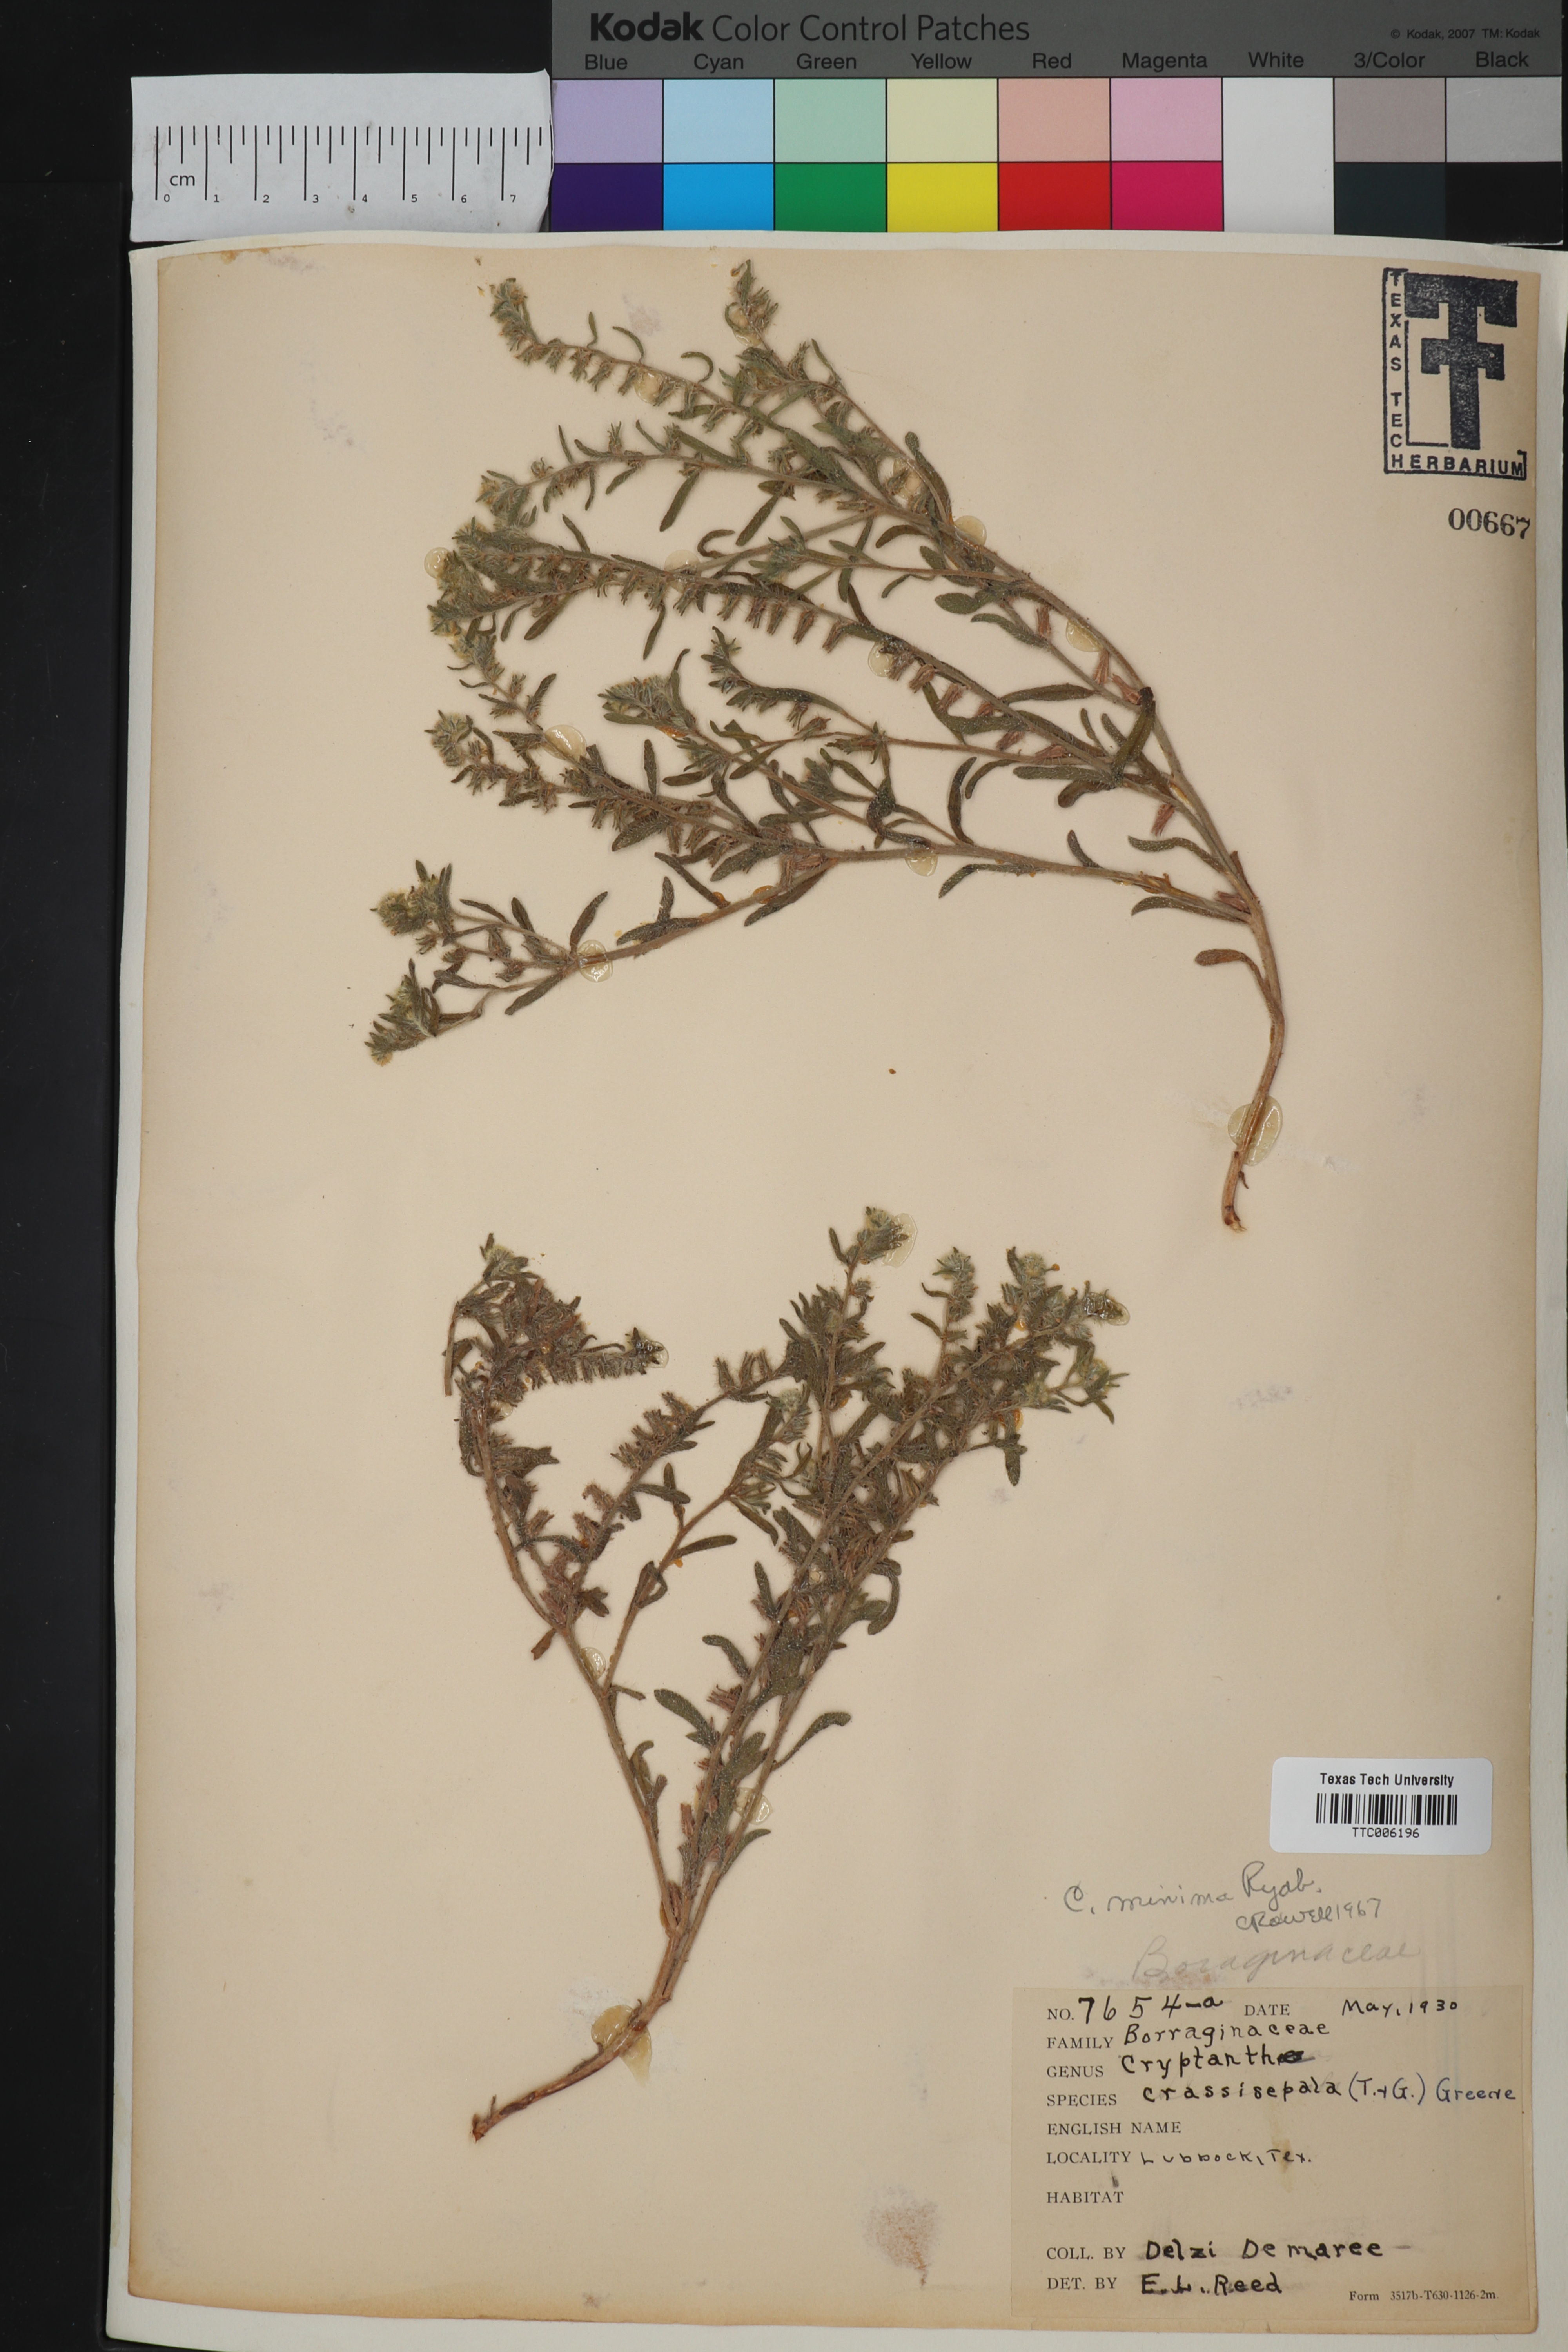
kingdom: Plantae
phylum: Tracheophyta
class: Magnoliopsida
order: Boraginales
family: Boraginaceae
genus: Cryptantha
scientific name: Cryptantha minima
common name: Little cat's-eye
